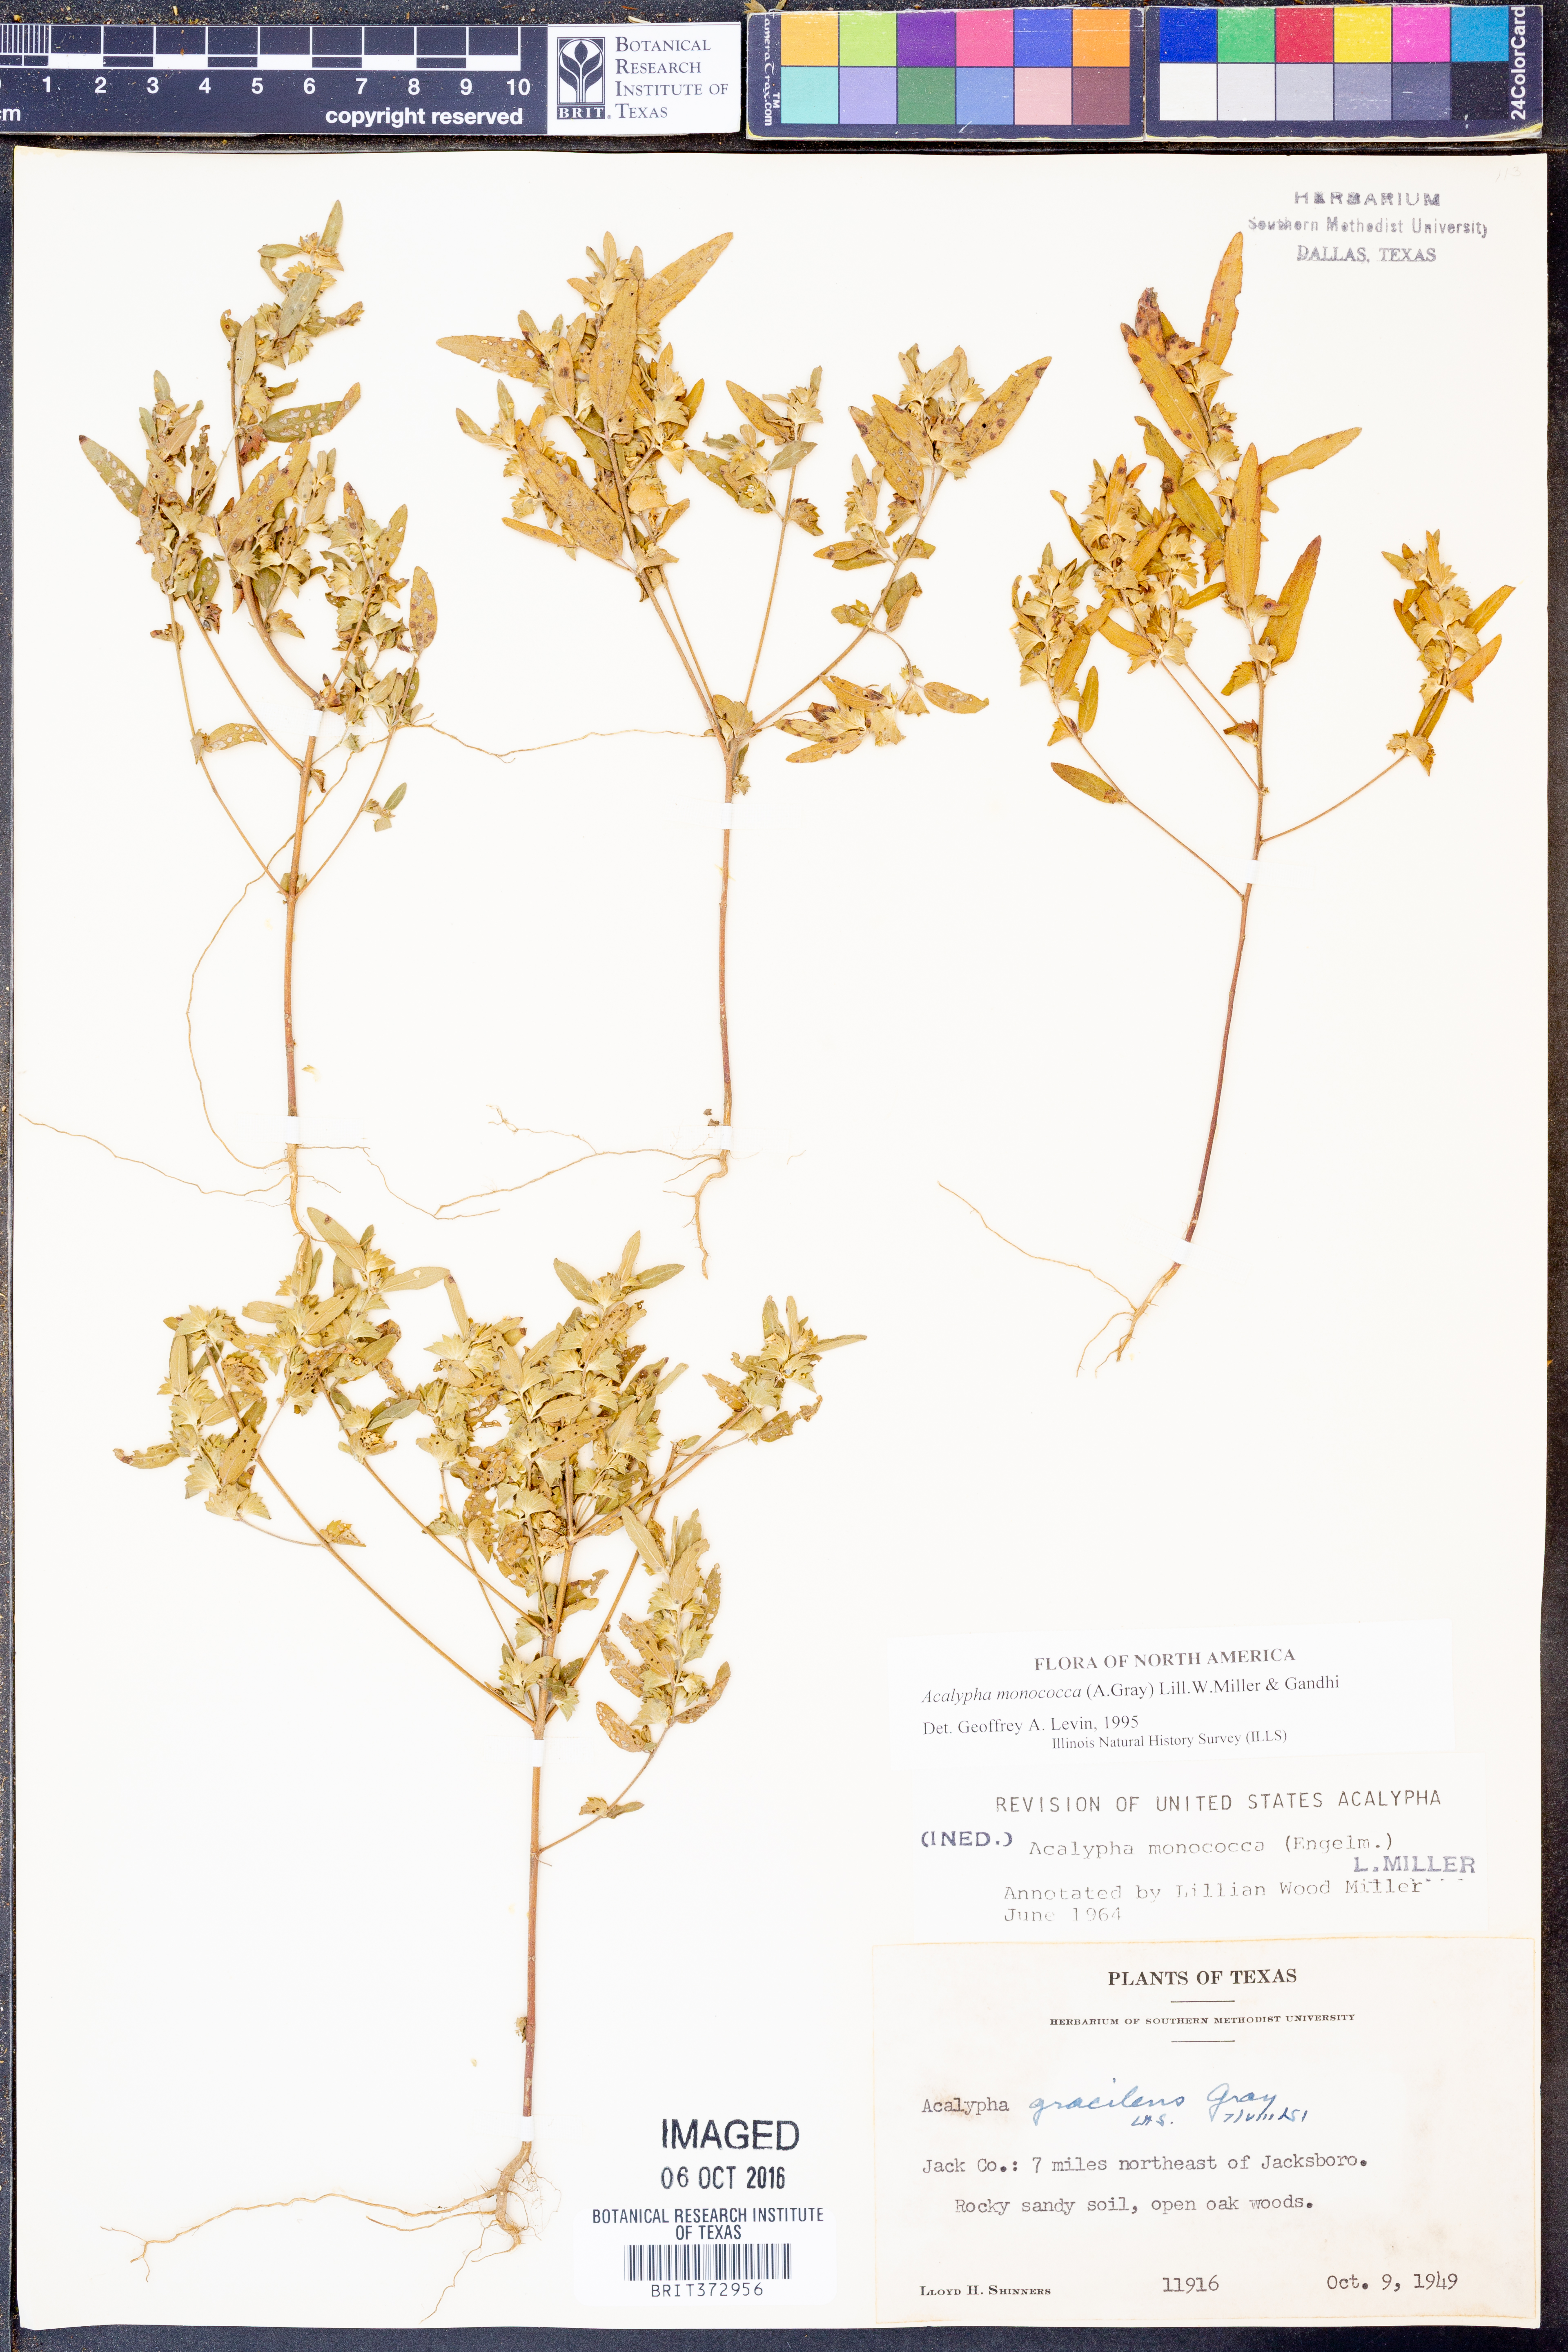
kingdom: Plantae
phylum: Tracheophyta
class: Magnoliopsida
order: Malpighiales
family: Euphorbiaceae
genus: Acalypha
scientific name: Acalypha monococca
